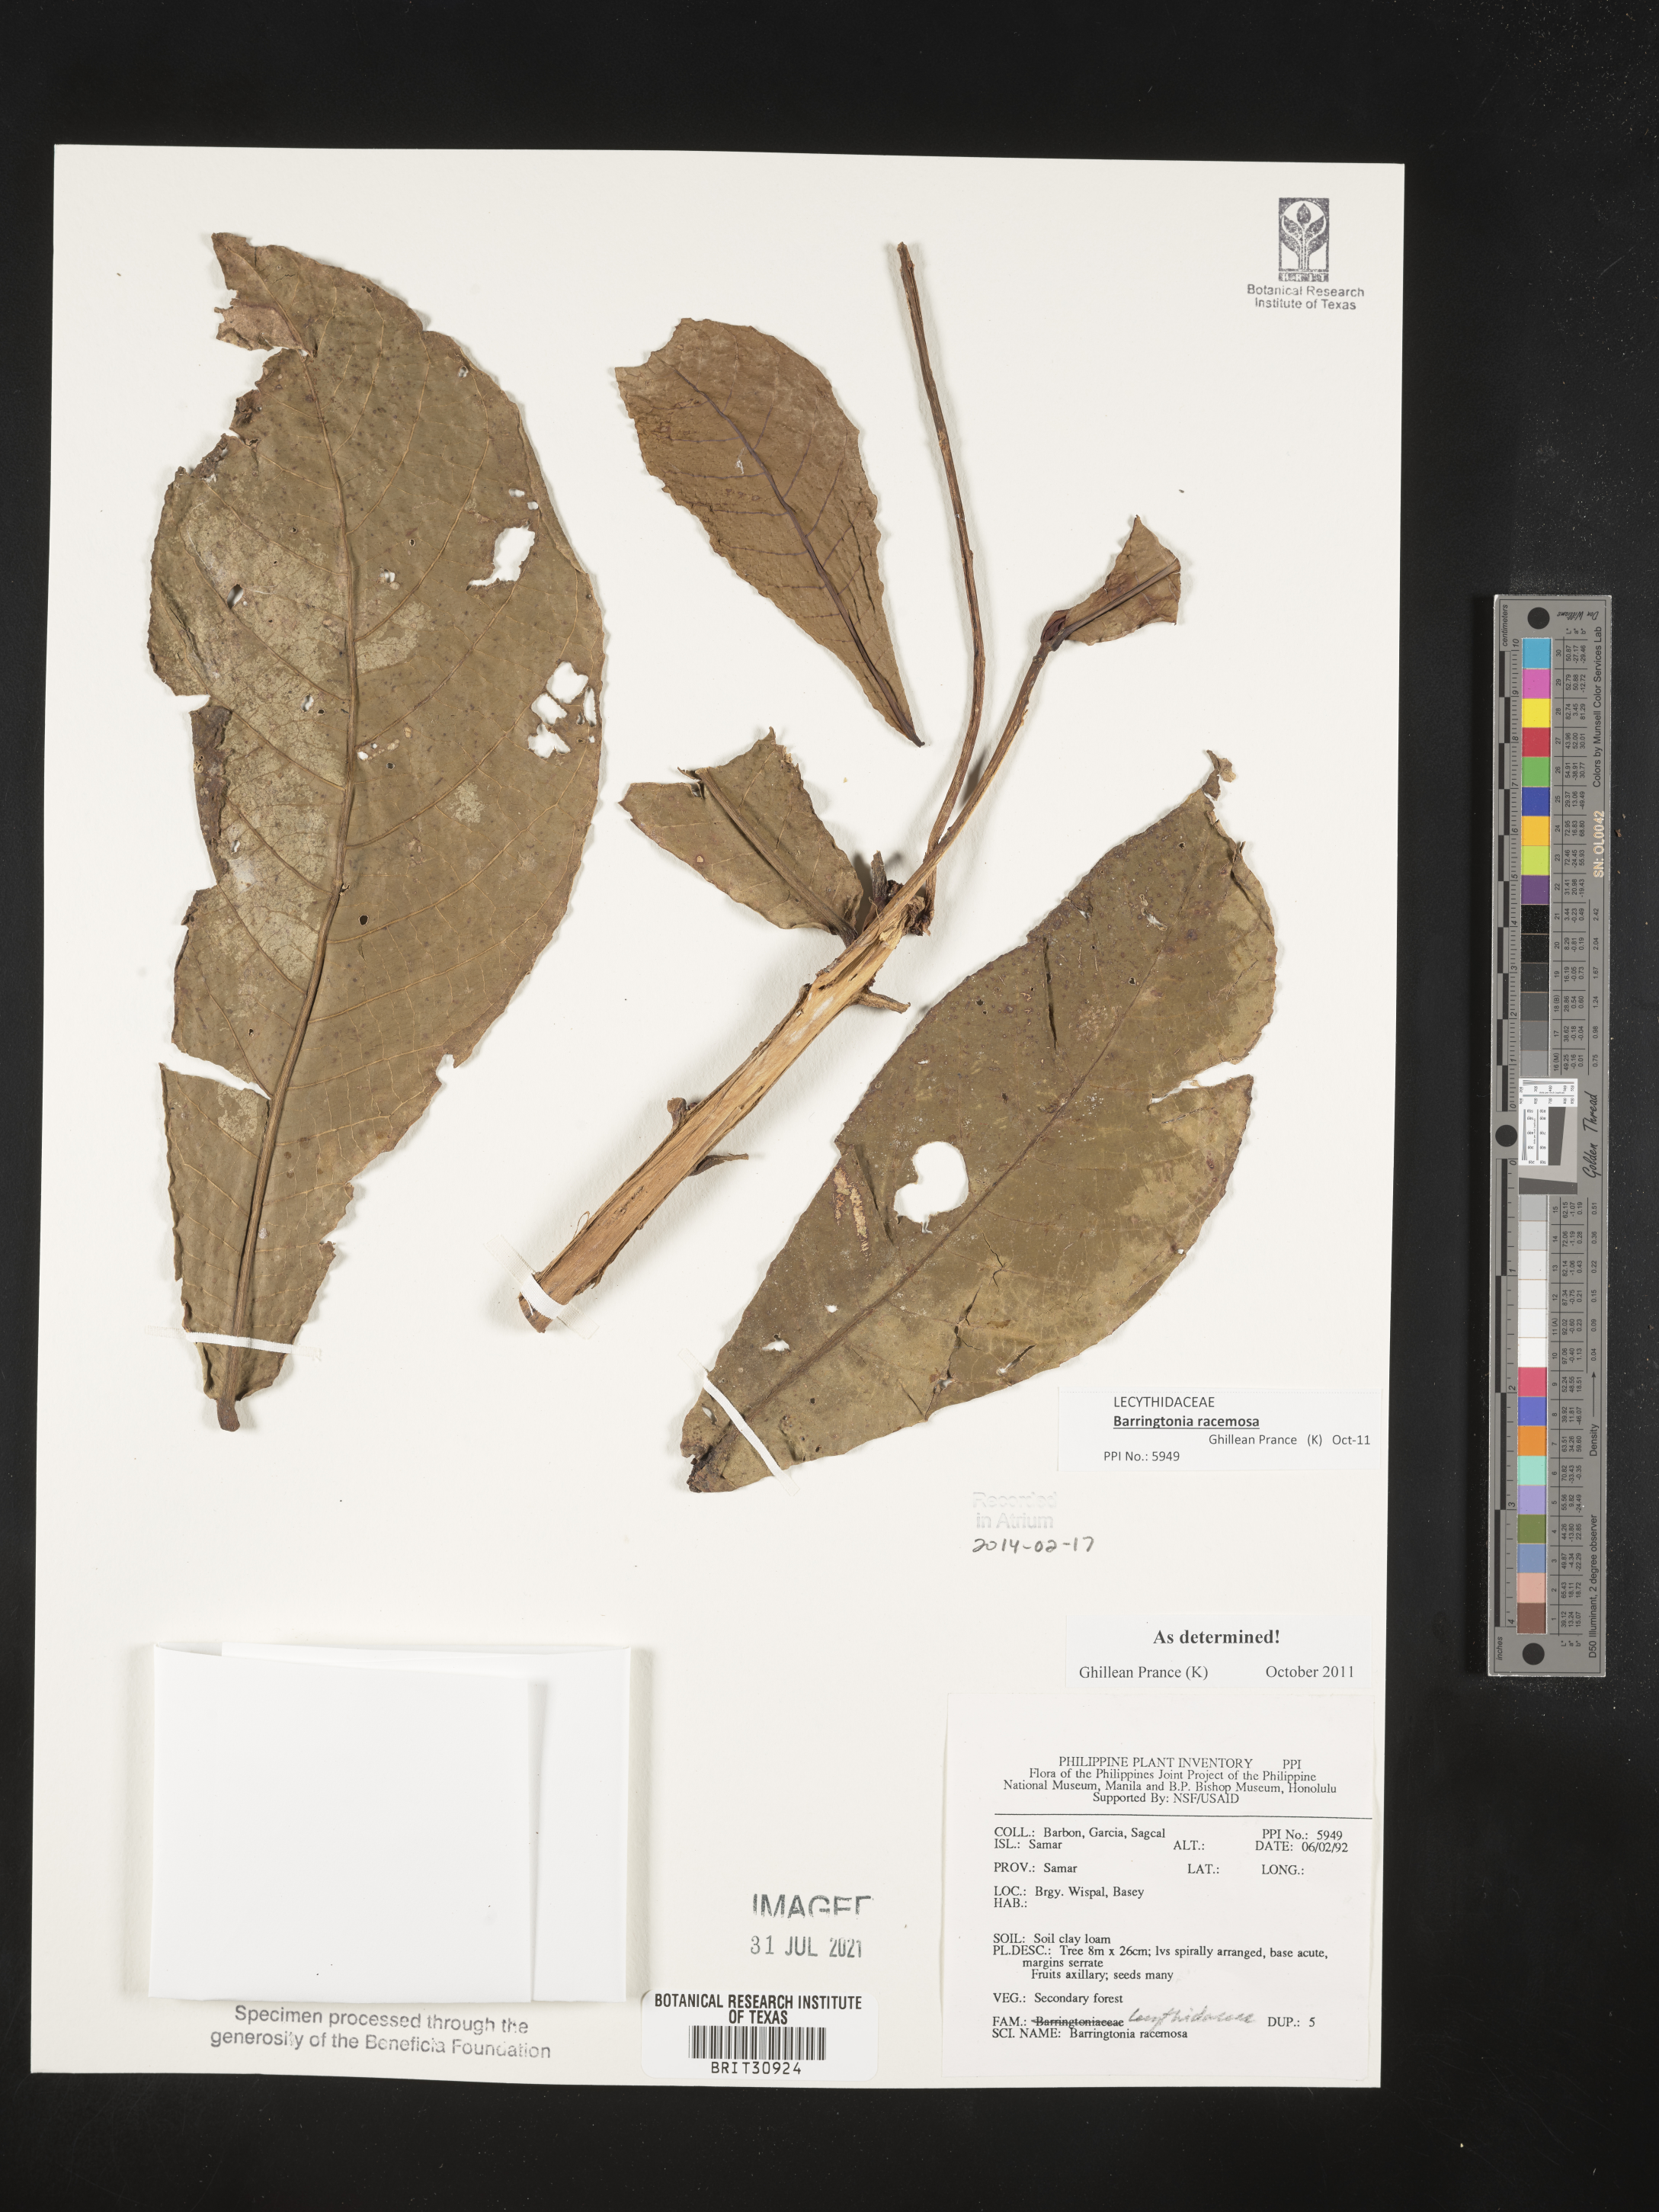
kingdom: Plantae
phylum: Tracheophyta
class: Magnoliopsida
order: Ericales
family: Lecythidaceae
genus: Barringtonia
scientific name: Barringtonia racemosa
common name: Brackwater mangrove
